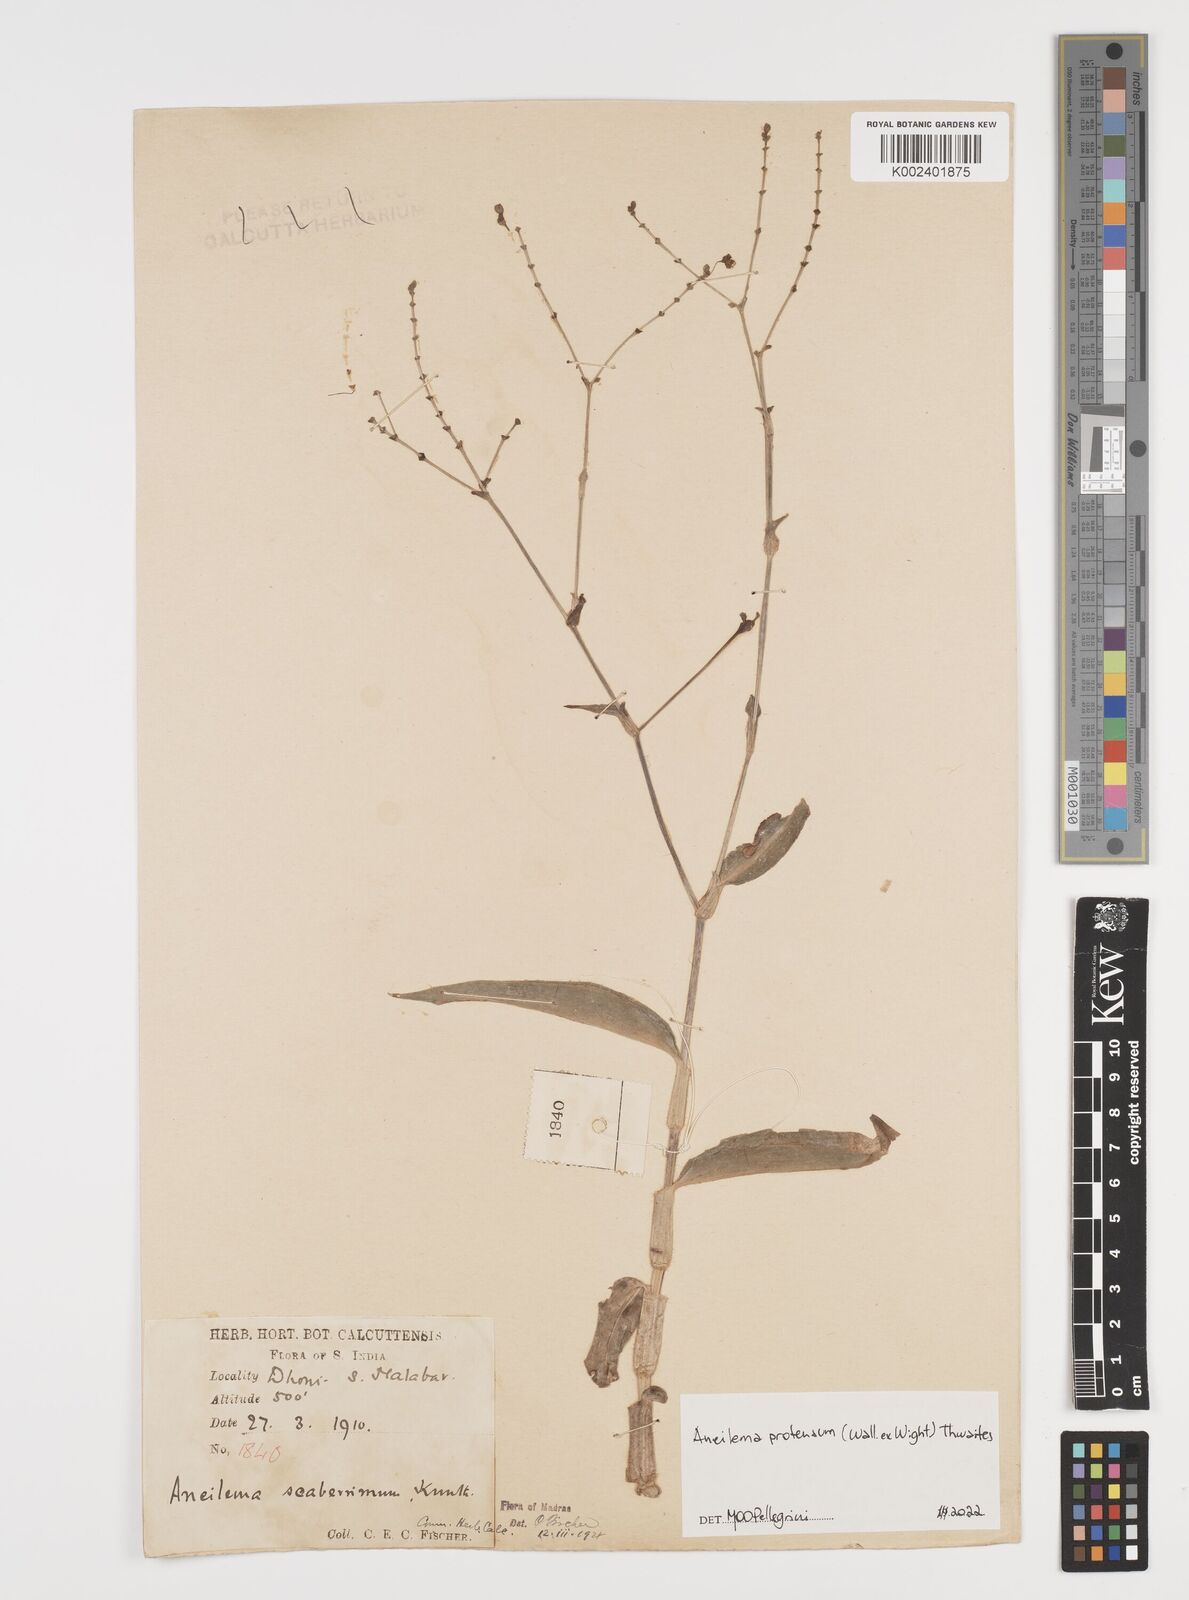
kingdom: Plantae
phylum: Tracheophyta
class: Liliopsida
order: Commelinales
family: Commelinaceae
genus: Rhopalephora
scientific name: Rhopalephora
